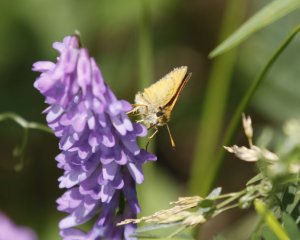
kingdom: Animalia
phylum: Arthropoda
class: Insecta
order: Lepidoptera
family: Hesperiidae
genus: Thymelicus
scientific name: Thymelicus lineola
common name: European Skipper
